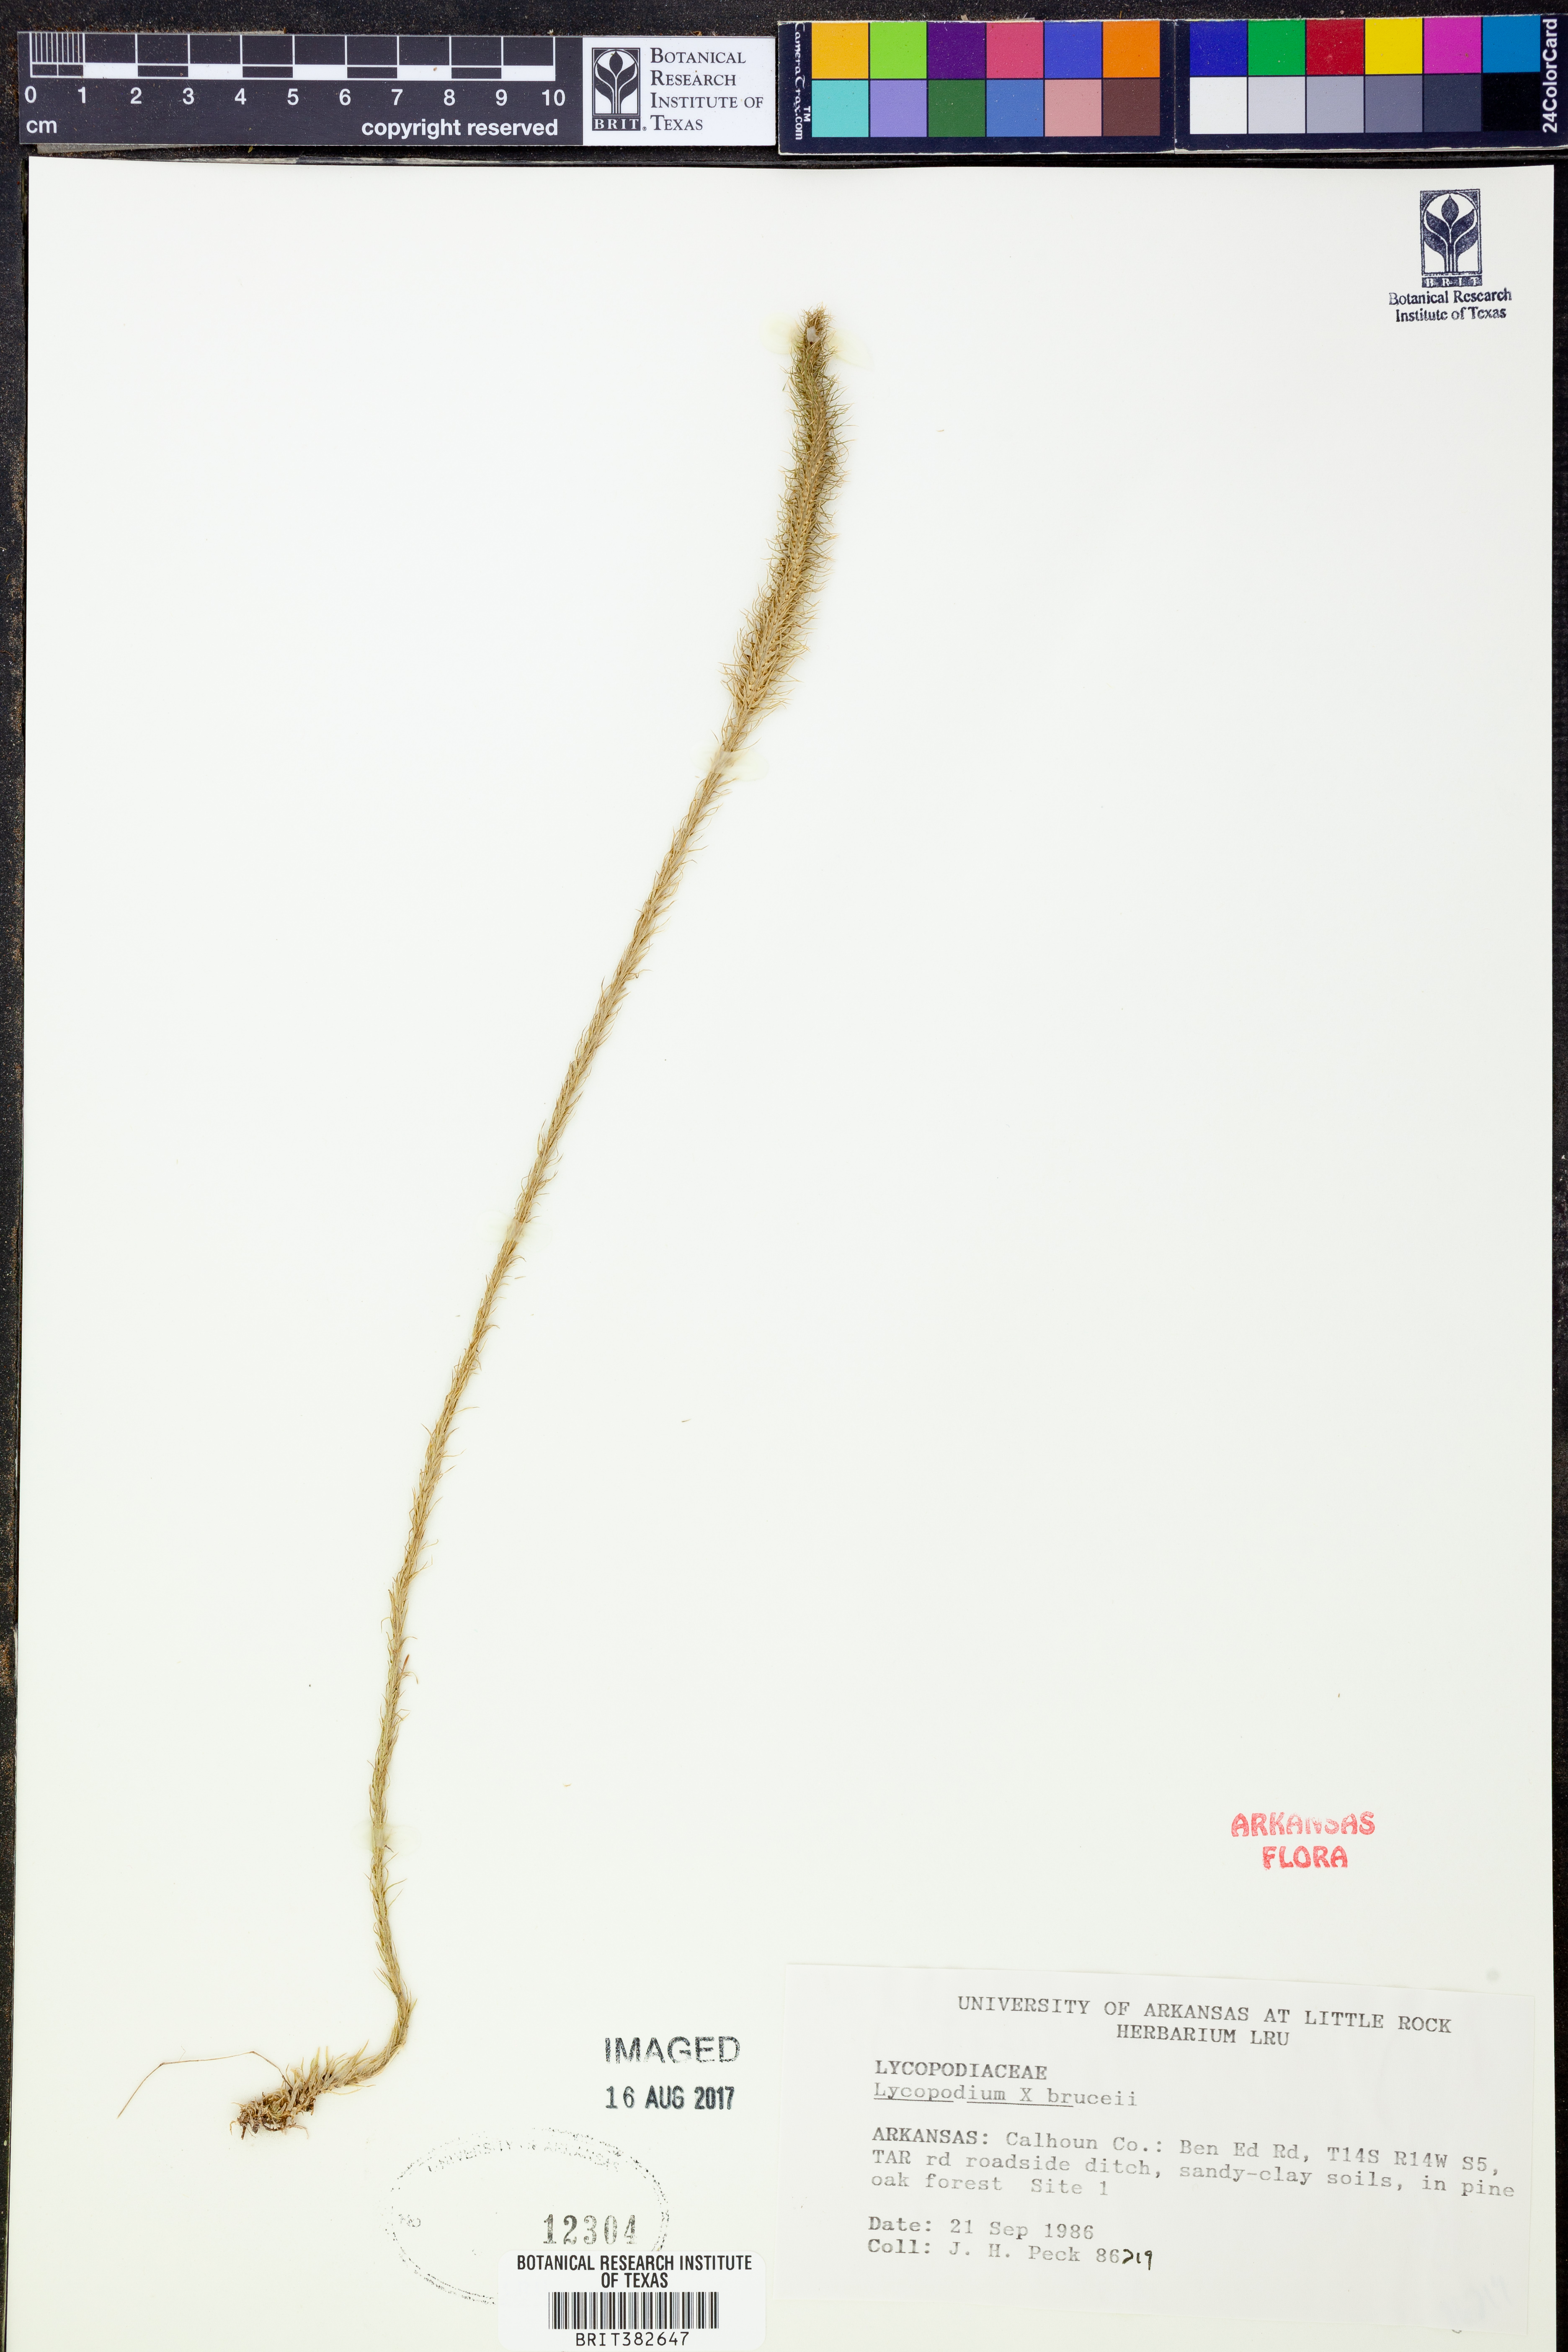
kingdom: Plantae
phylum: Tracheophyta
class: Lycopodiopsida
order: Lycopodiales
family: Lycopodiaceae
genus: Lycopodiella
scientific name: Lycopodiella brucei
